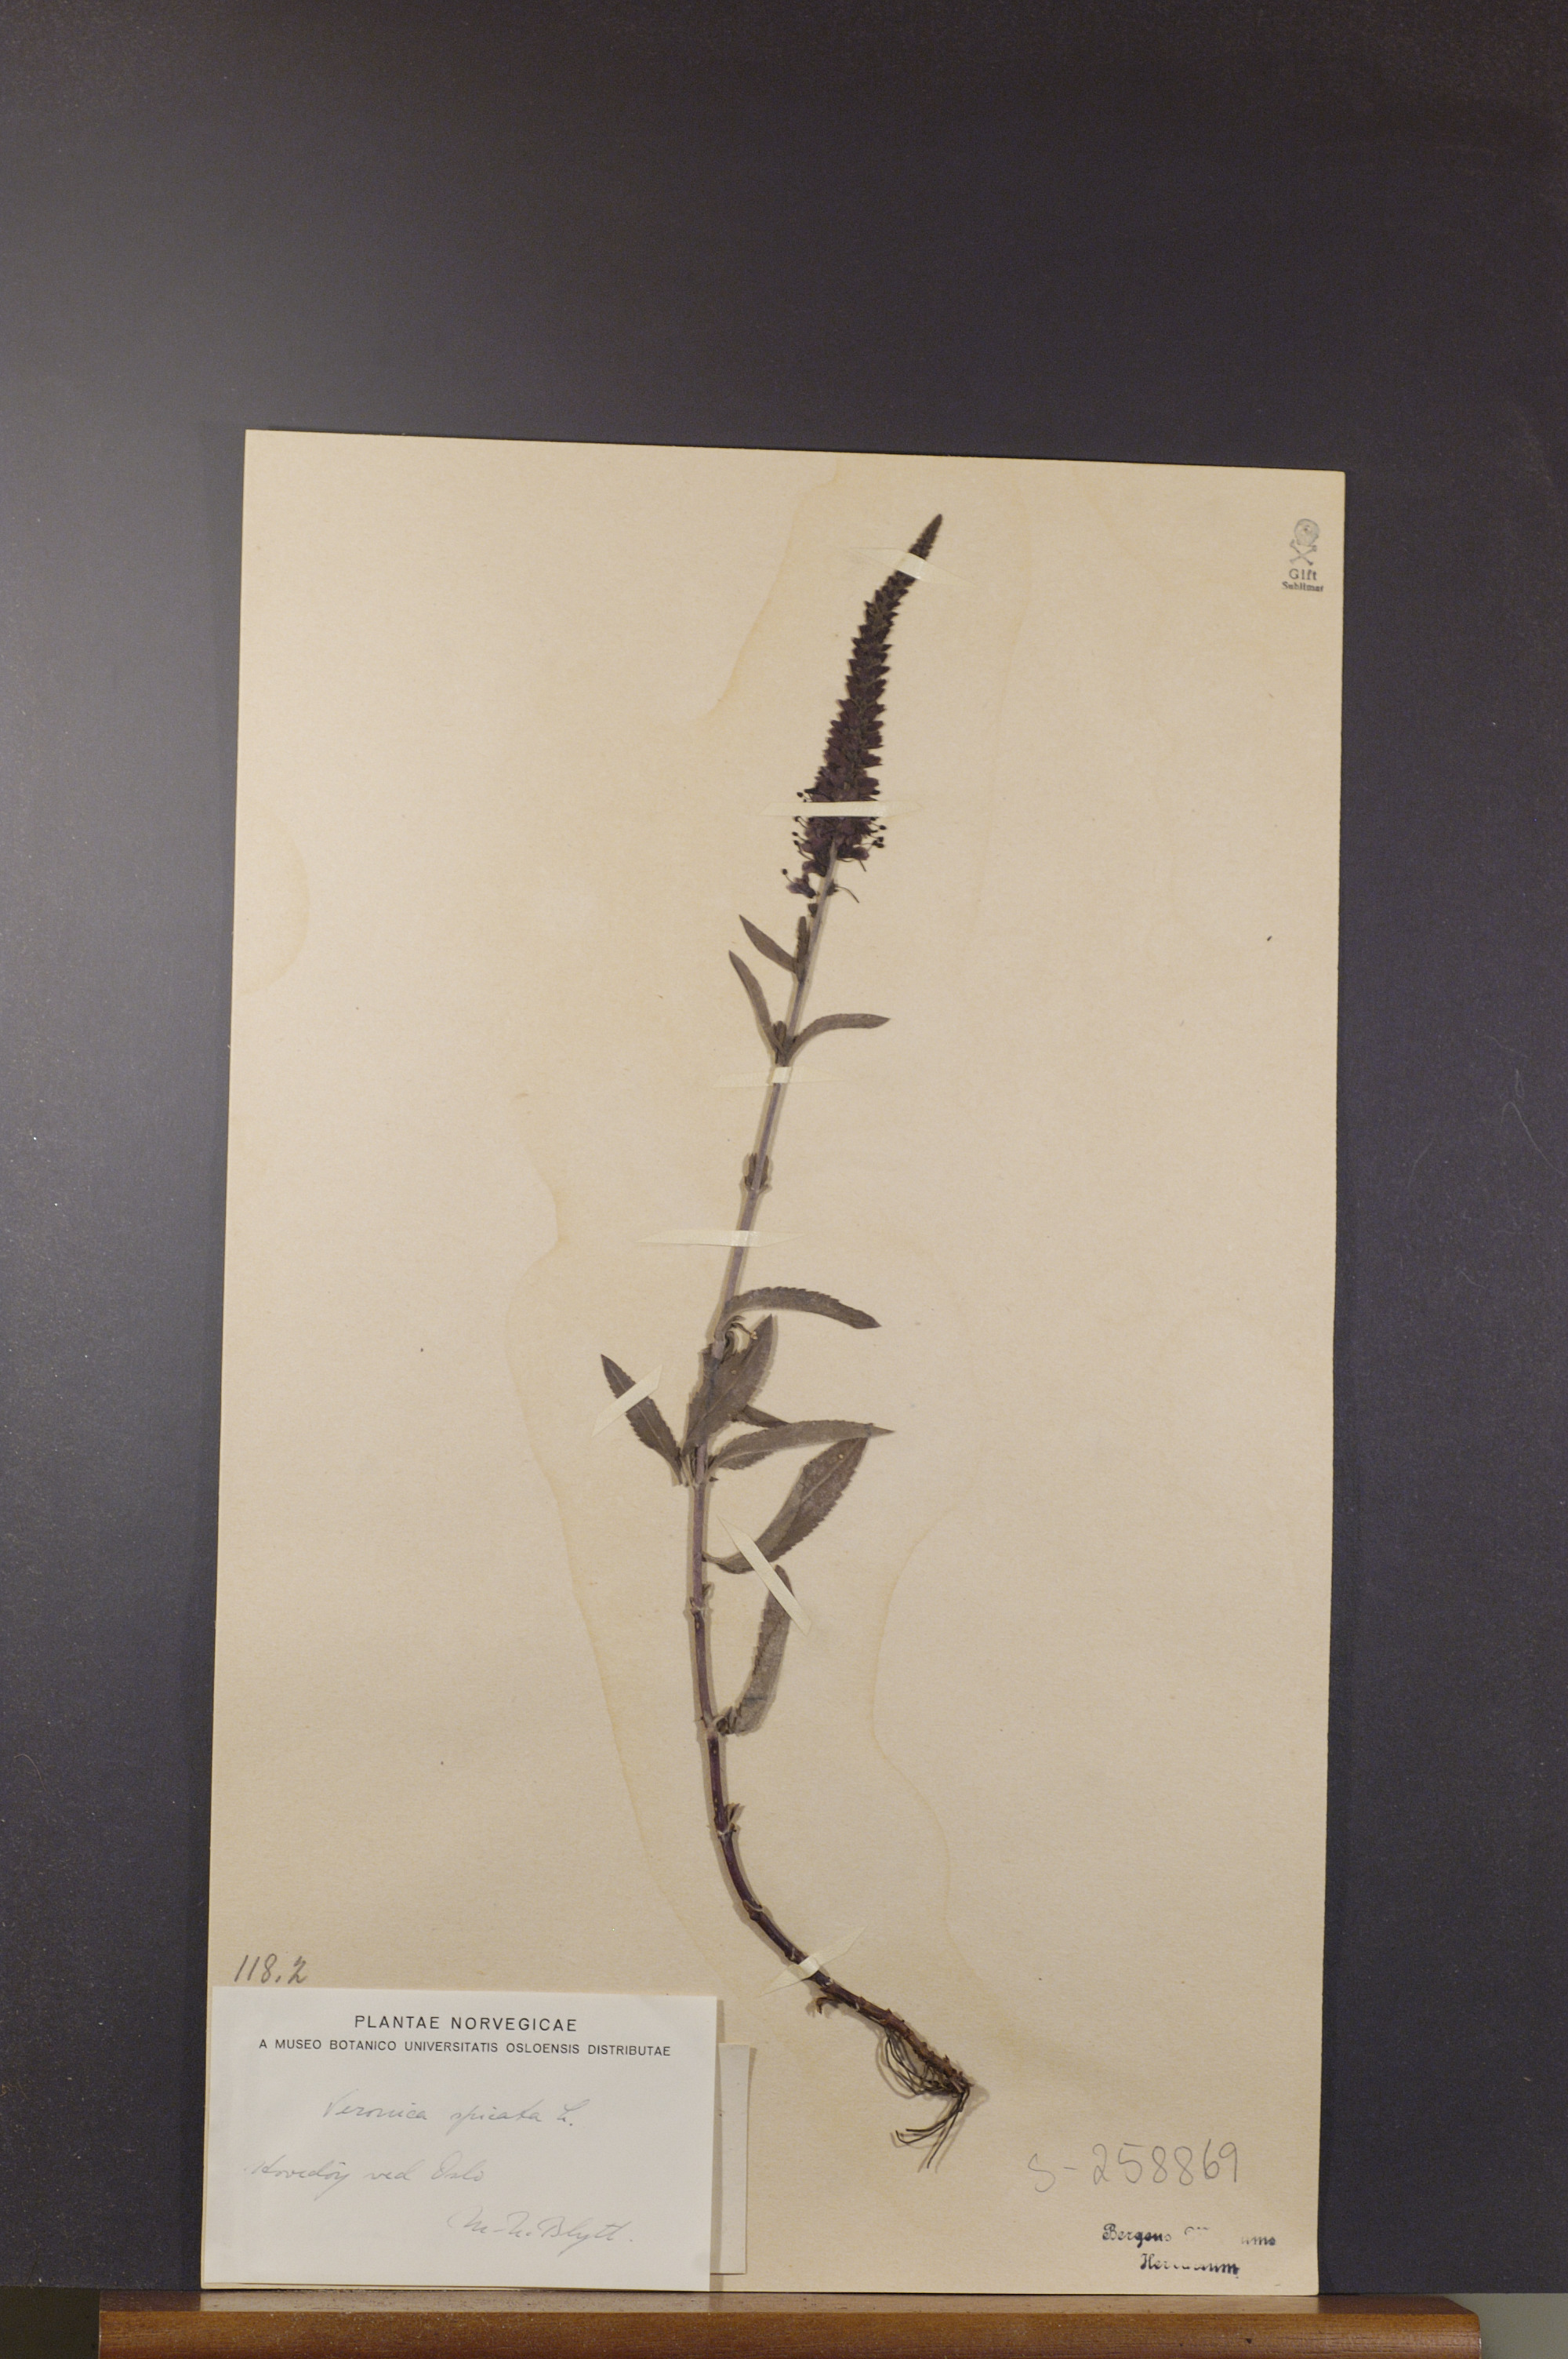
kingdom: Plantae
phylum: Tracheophyta
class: Magnoliopsida
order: Lamiales
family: Plantaginaceae
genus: Veronica
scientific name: Veronica spicata
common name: Spiked speedwell
